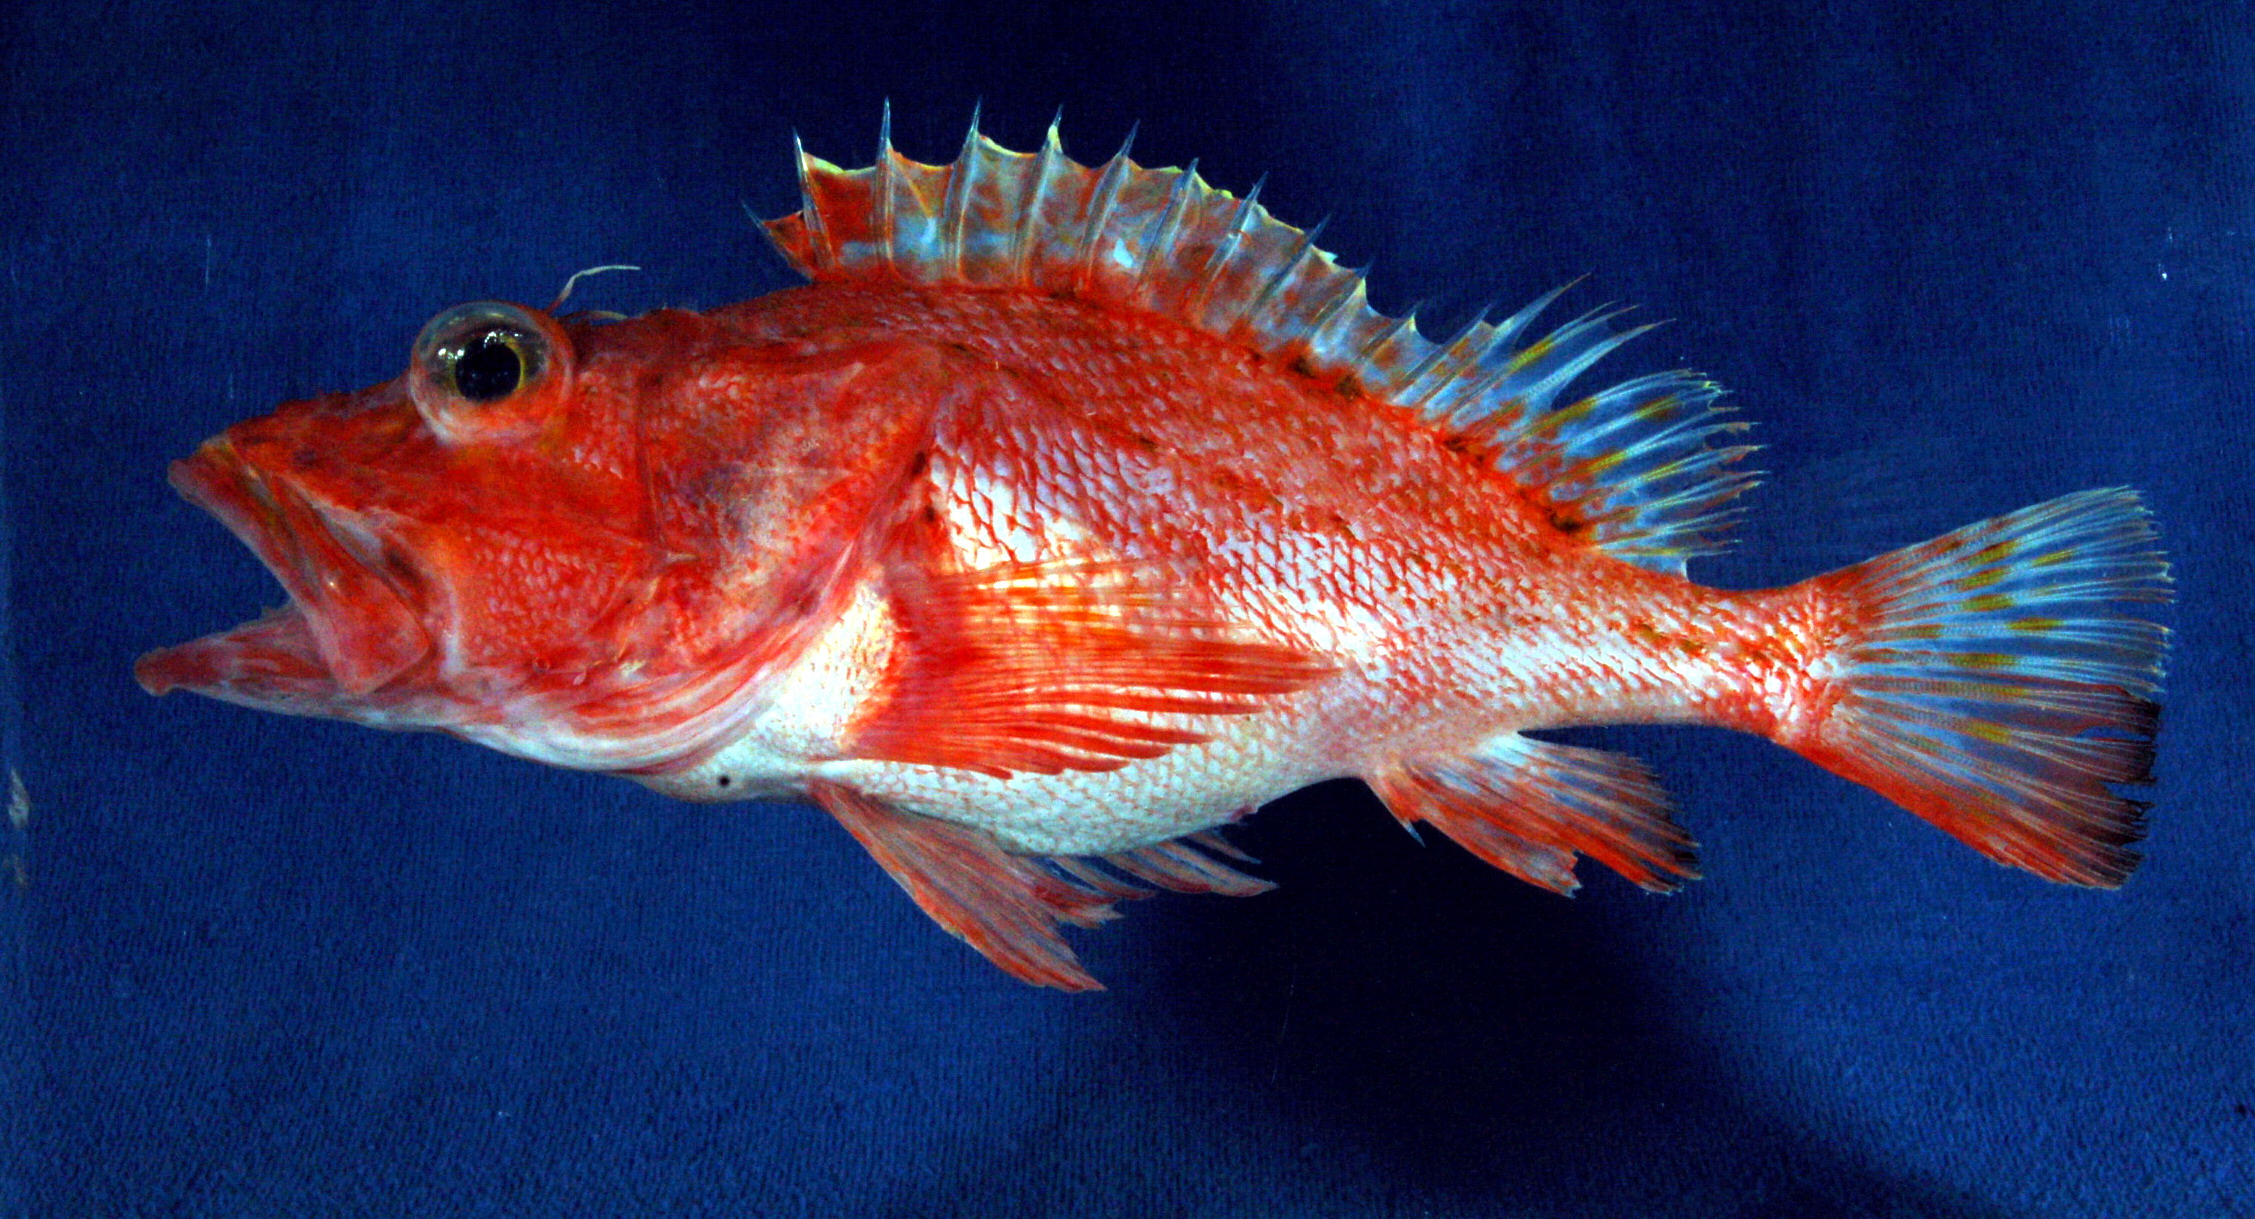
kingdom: Animalia
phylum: Chordata
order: Scorpaeniformes
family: Scorpaenidae
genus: Pontinus
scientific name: Pontinus nigerimum
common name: Blacklash scorpionfish
